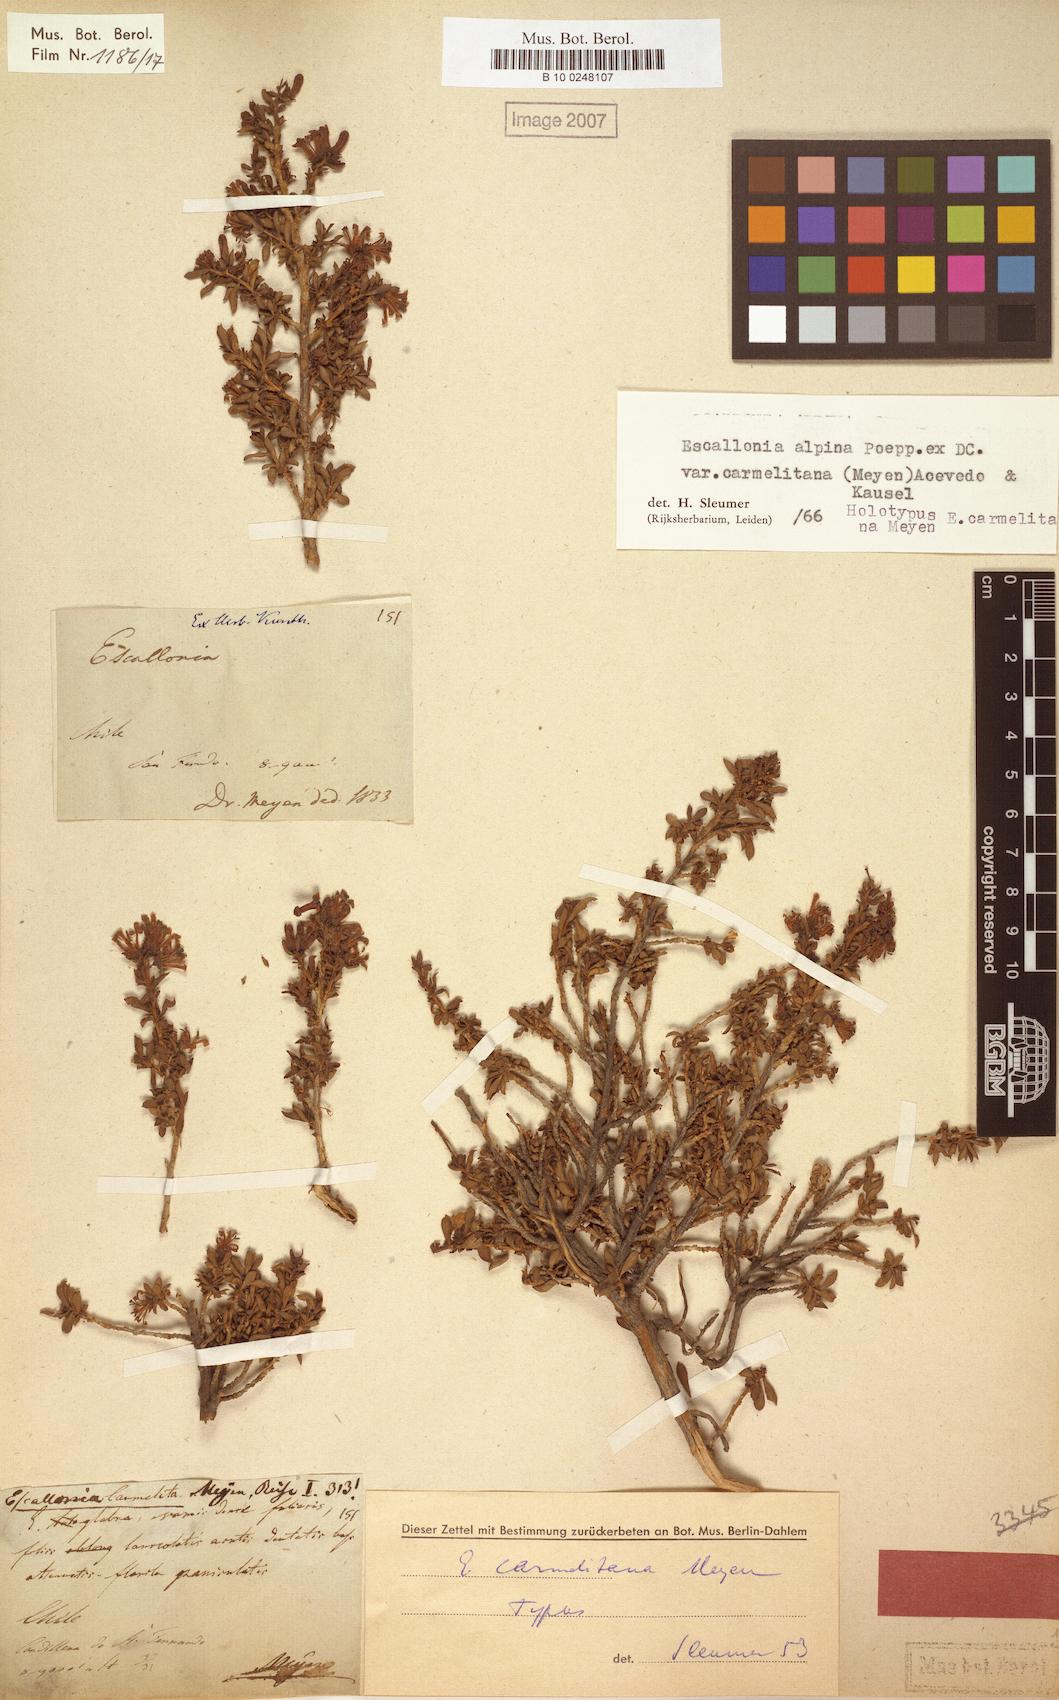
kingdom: Plantae
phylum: Tracheophyta
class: Magnoliopsida
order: Escalloniales
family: Escalloniaceae
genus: Escallonia
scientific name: Escallonia alpina
